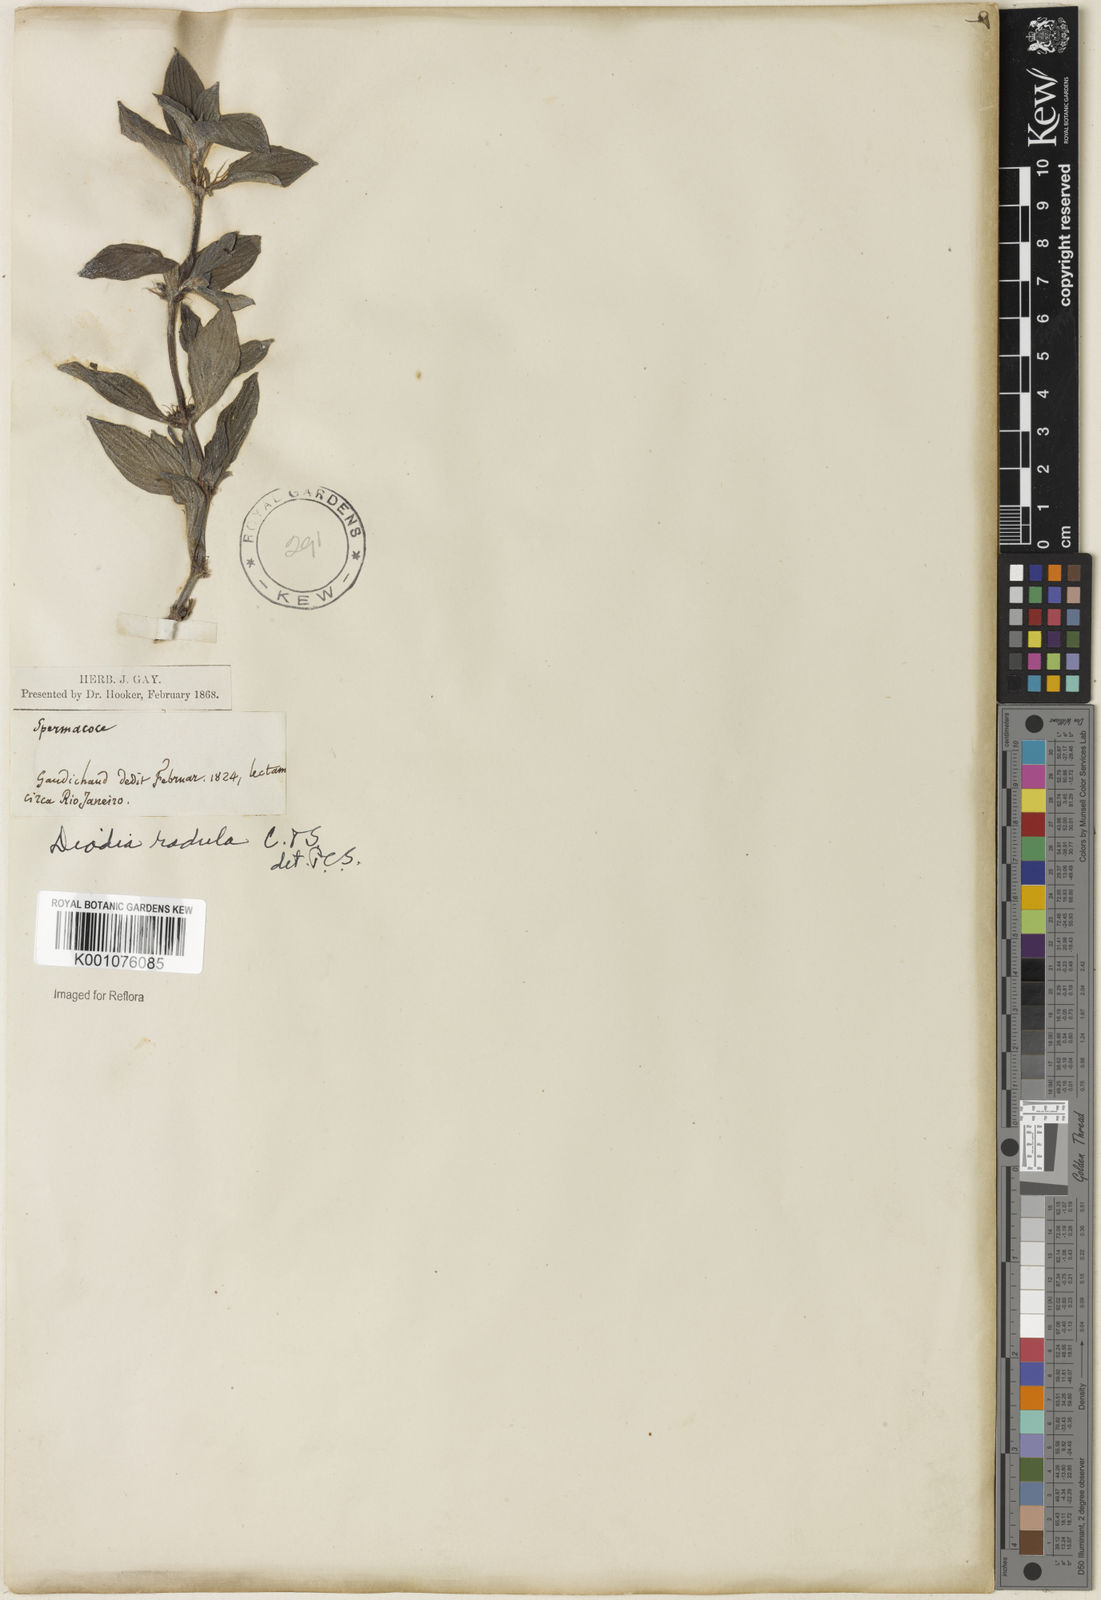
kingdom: Plantae
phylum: Tracheophyta
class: Magnoliopsida
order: Gentianales
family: Rubiaceae
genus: Hexasepalum
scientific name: Hexasepalum radulum
